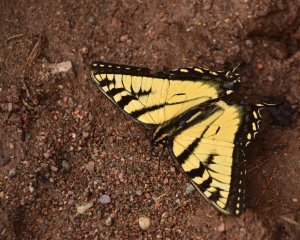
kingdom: Animalia
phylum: Arthropoda
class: Insecta
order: Lepidoptera
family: Papilionidae
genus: Pterourus
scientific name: Pterourus canadensis
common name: Canadian Tiger Swallowtail
